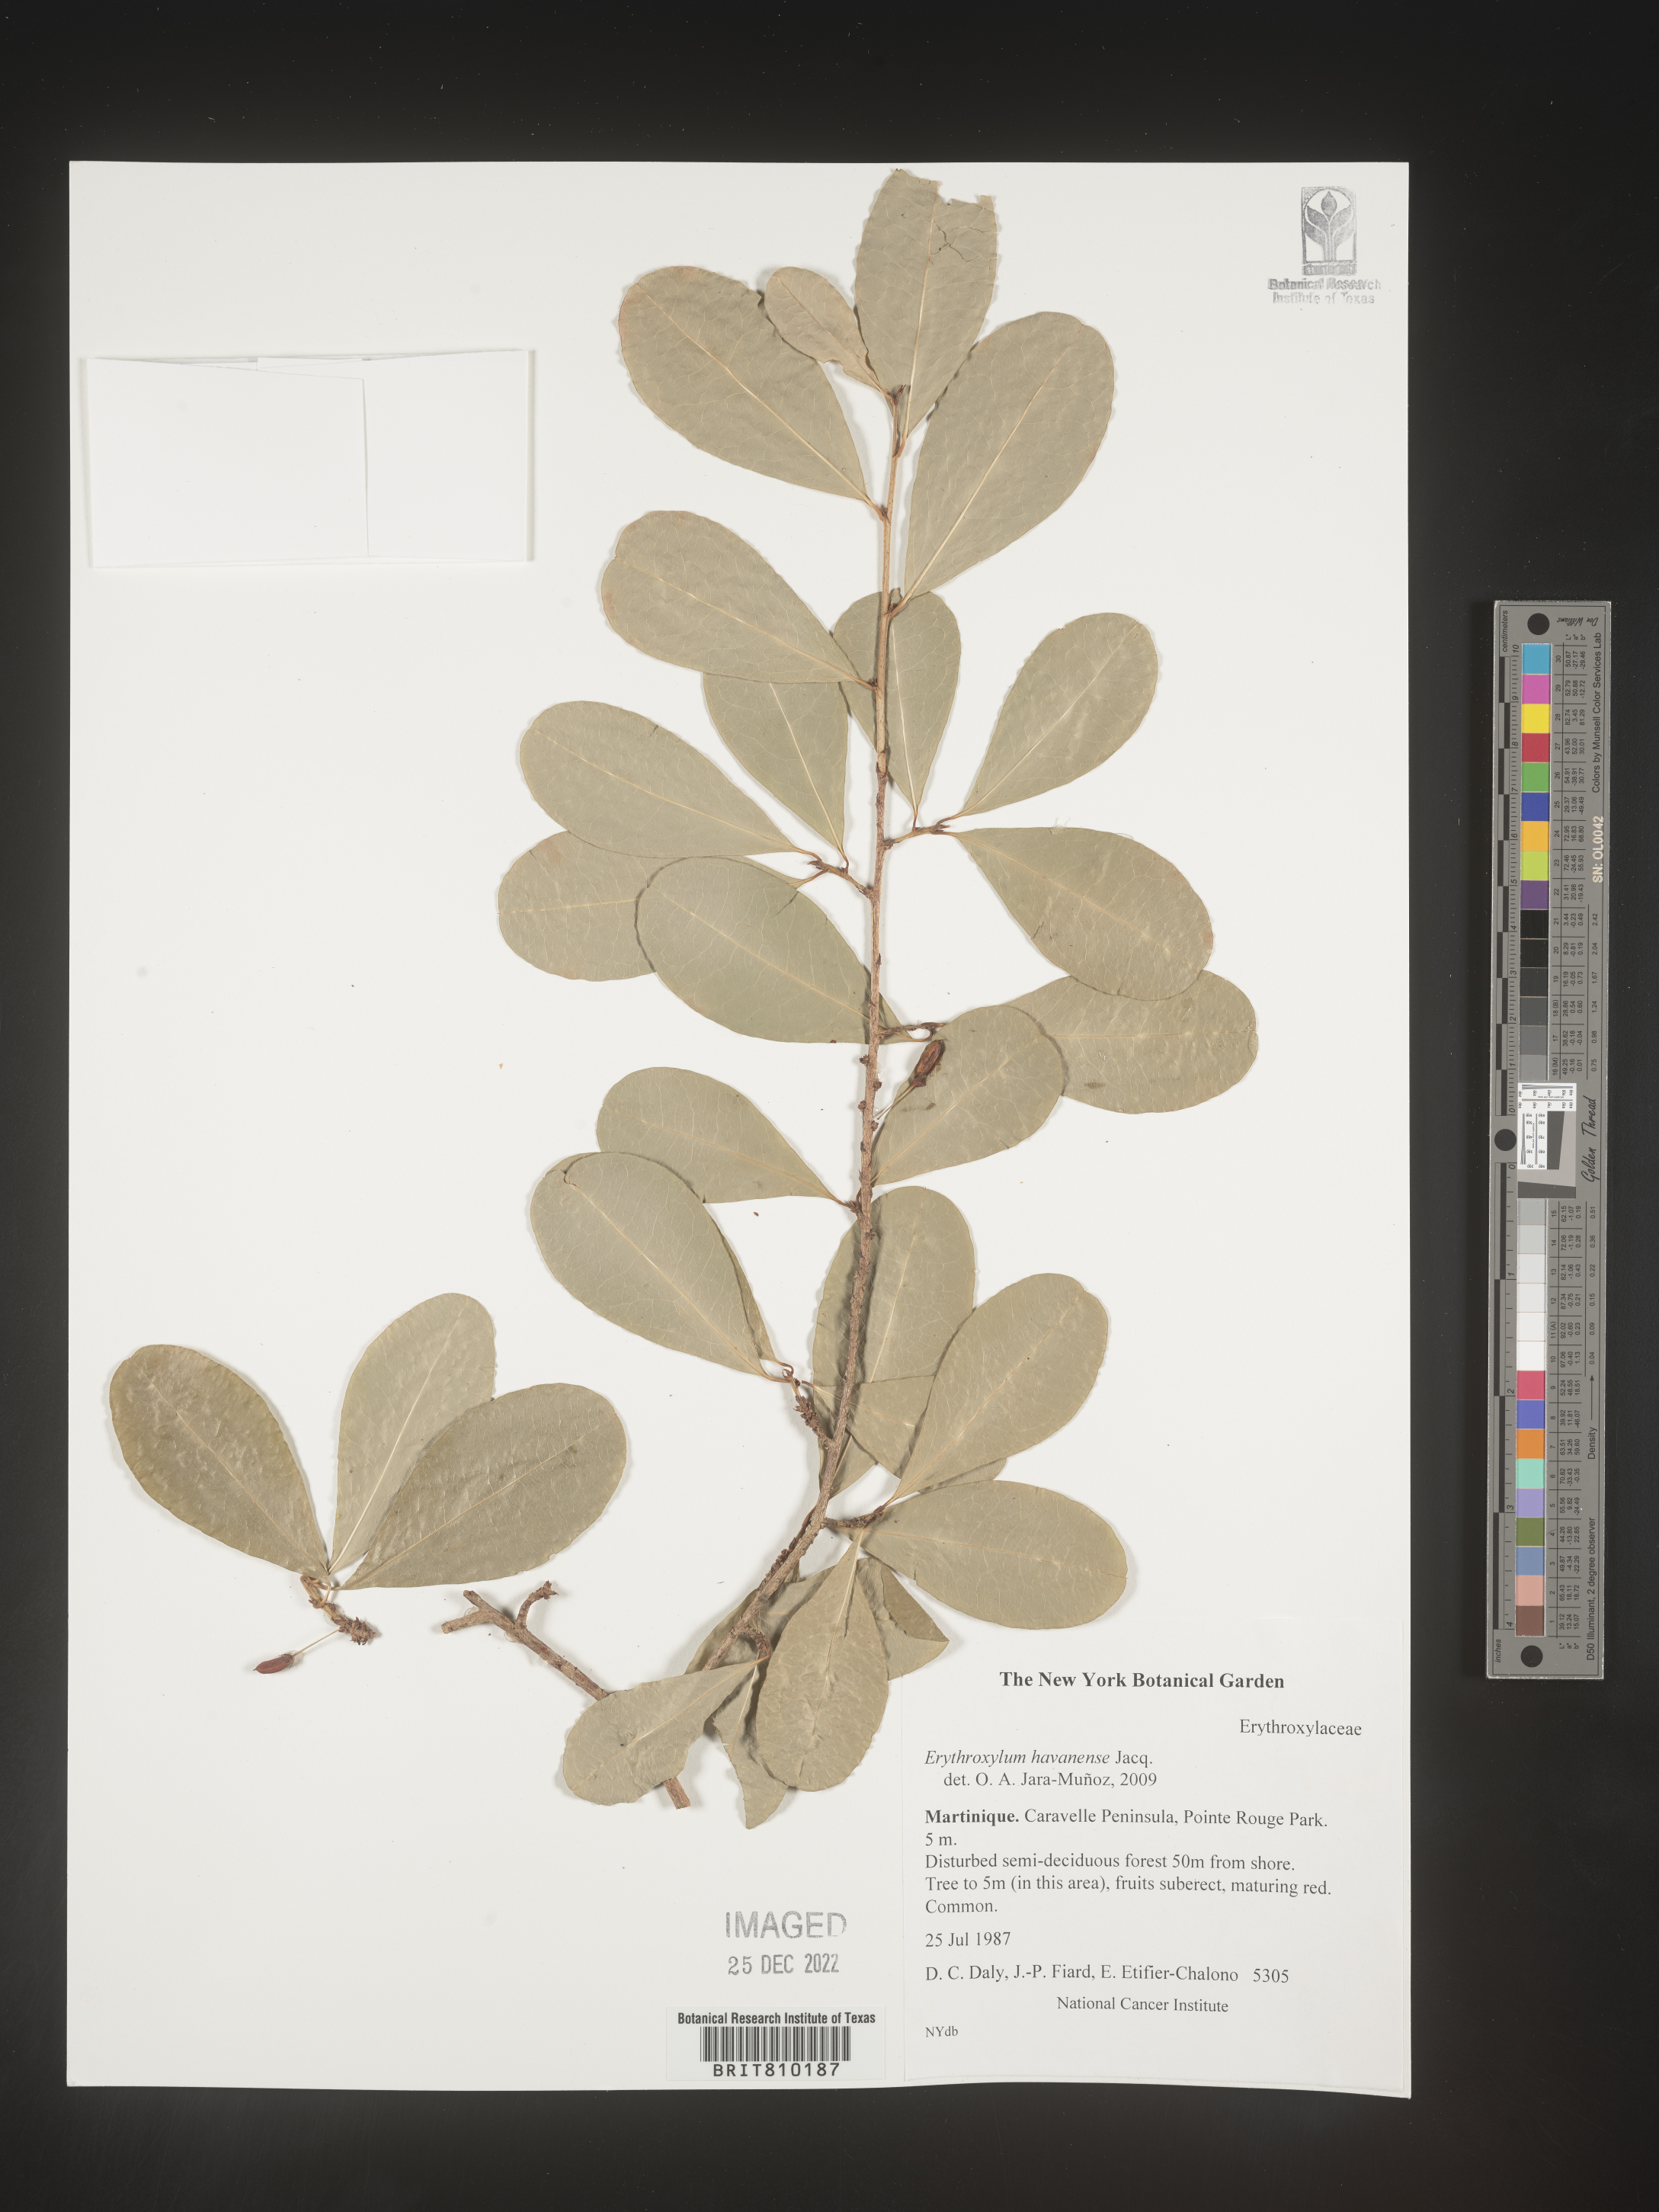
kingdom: Plantae
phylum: Tracheophyta
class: Magnoliopsida
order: Malpighiales
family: Erythroxylaceae
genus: Erythroxylum
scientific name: Erythroxylum
